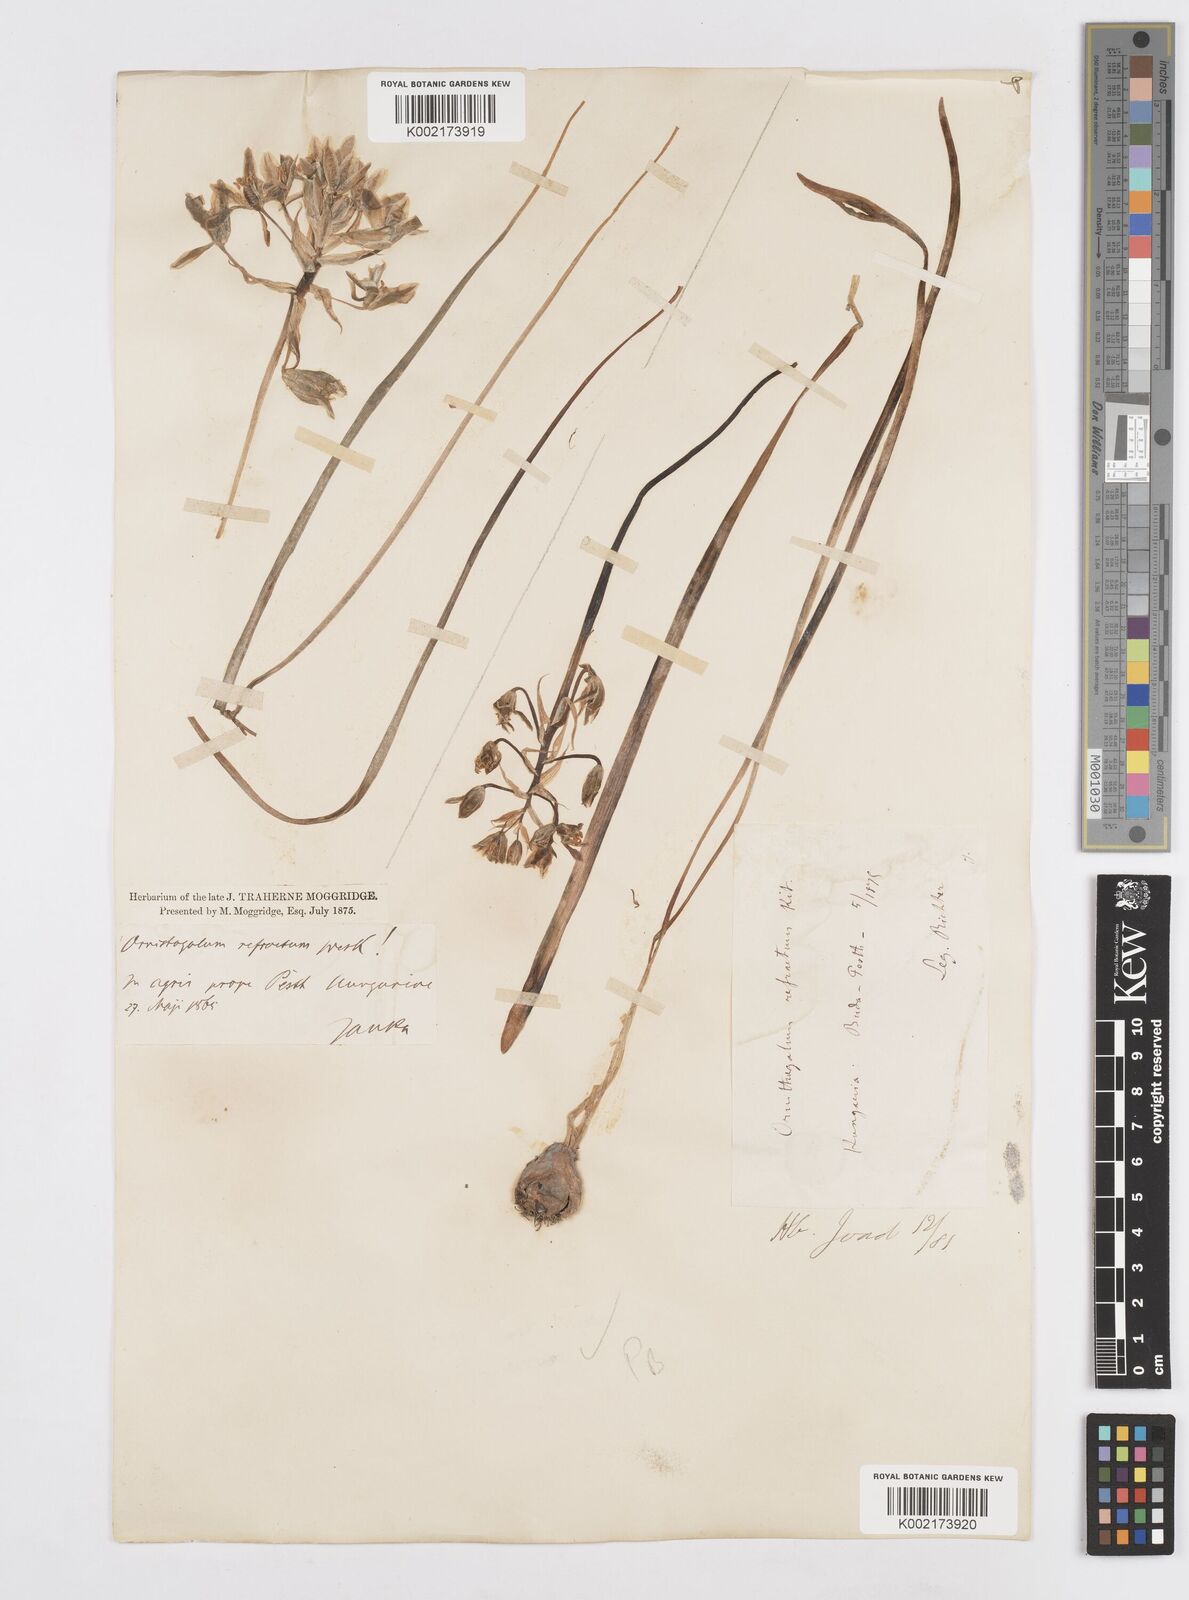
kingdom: Plantae
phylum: Tracheophyta
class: Liliopsida
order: Asparagales
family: Asparagaceae
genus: Ornithogalum
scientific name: Ornithogalum refractum
